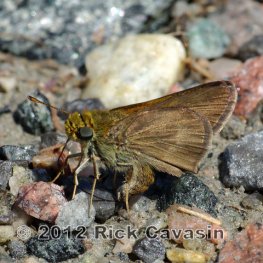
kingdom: Animalia
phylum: Arthropoda
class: Insecta
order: Lepidoptera
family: Hesperiidae
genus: Euphyes
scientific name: Euphyes vestris
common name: Dun Skipper
